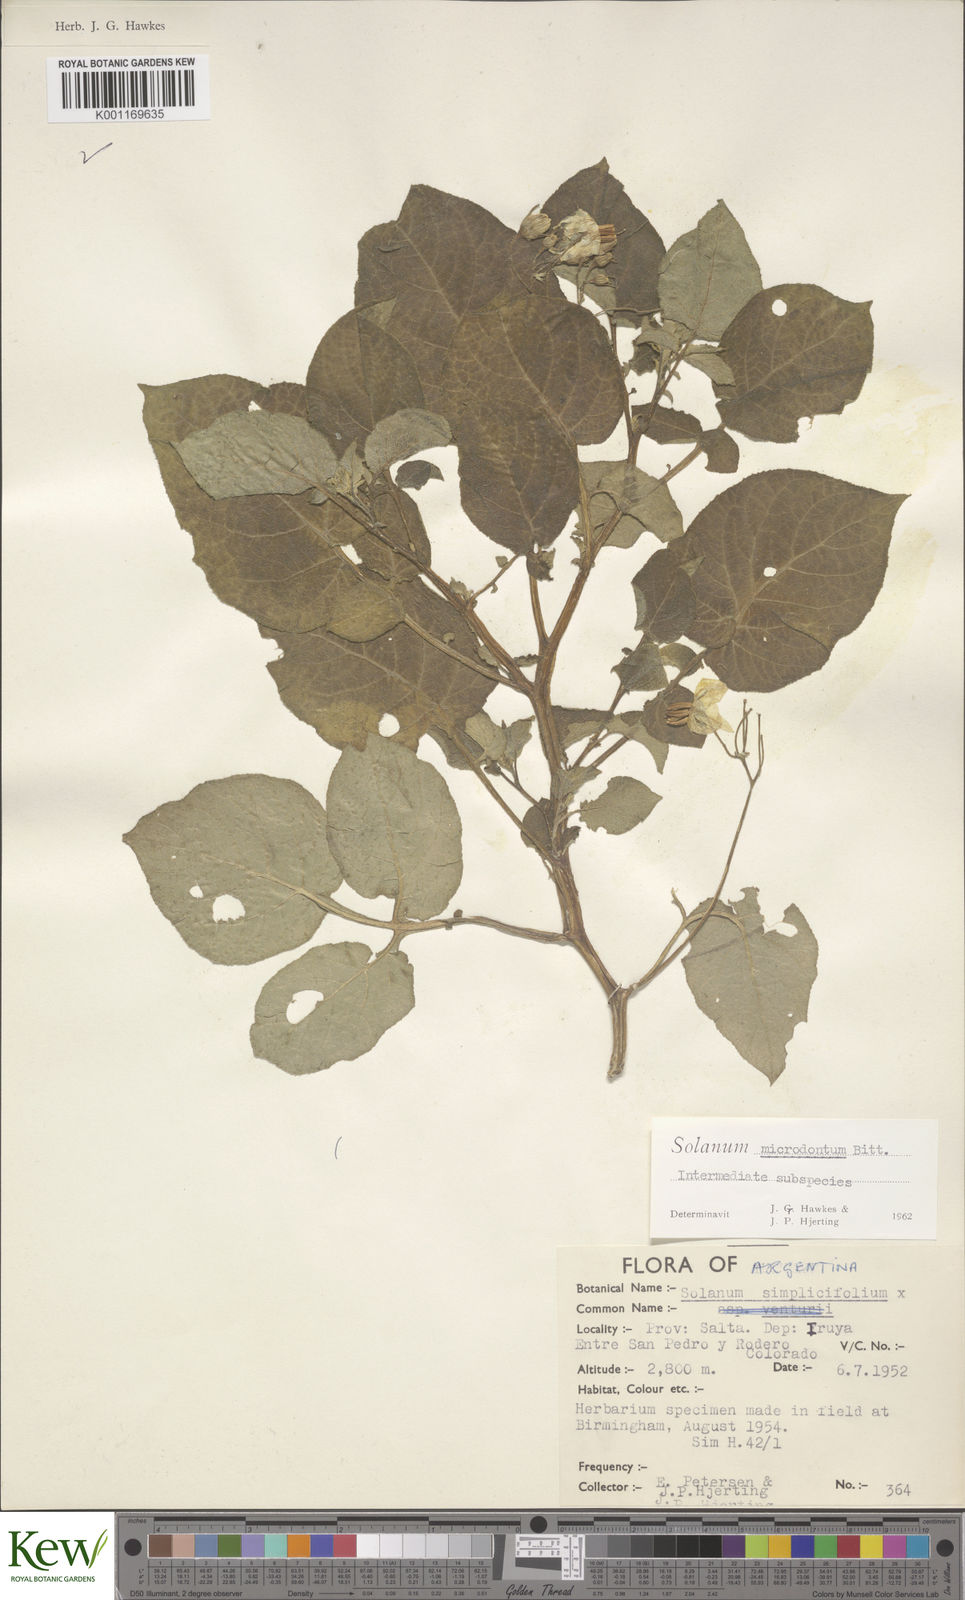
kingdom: Plantae
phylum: Tracheophyta
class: Magnoliopsida
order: Solanales
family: Solanaceae
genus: Solanum
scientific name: Solanum microdontum
